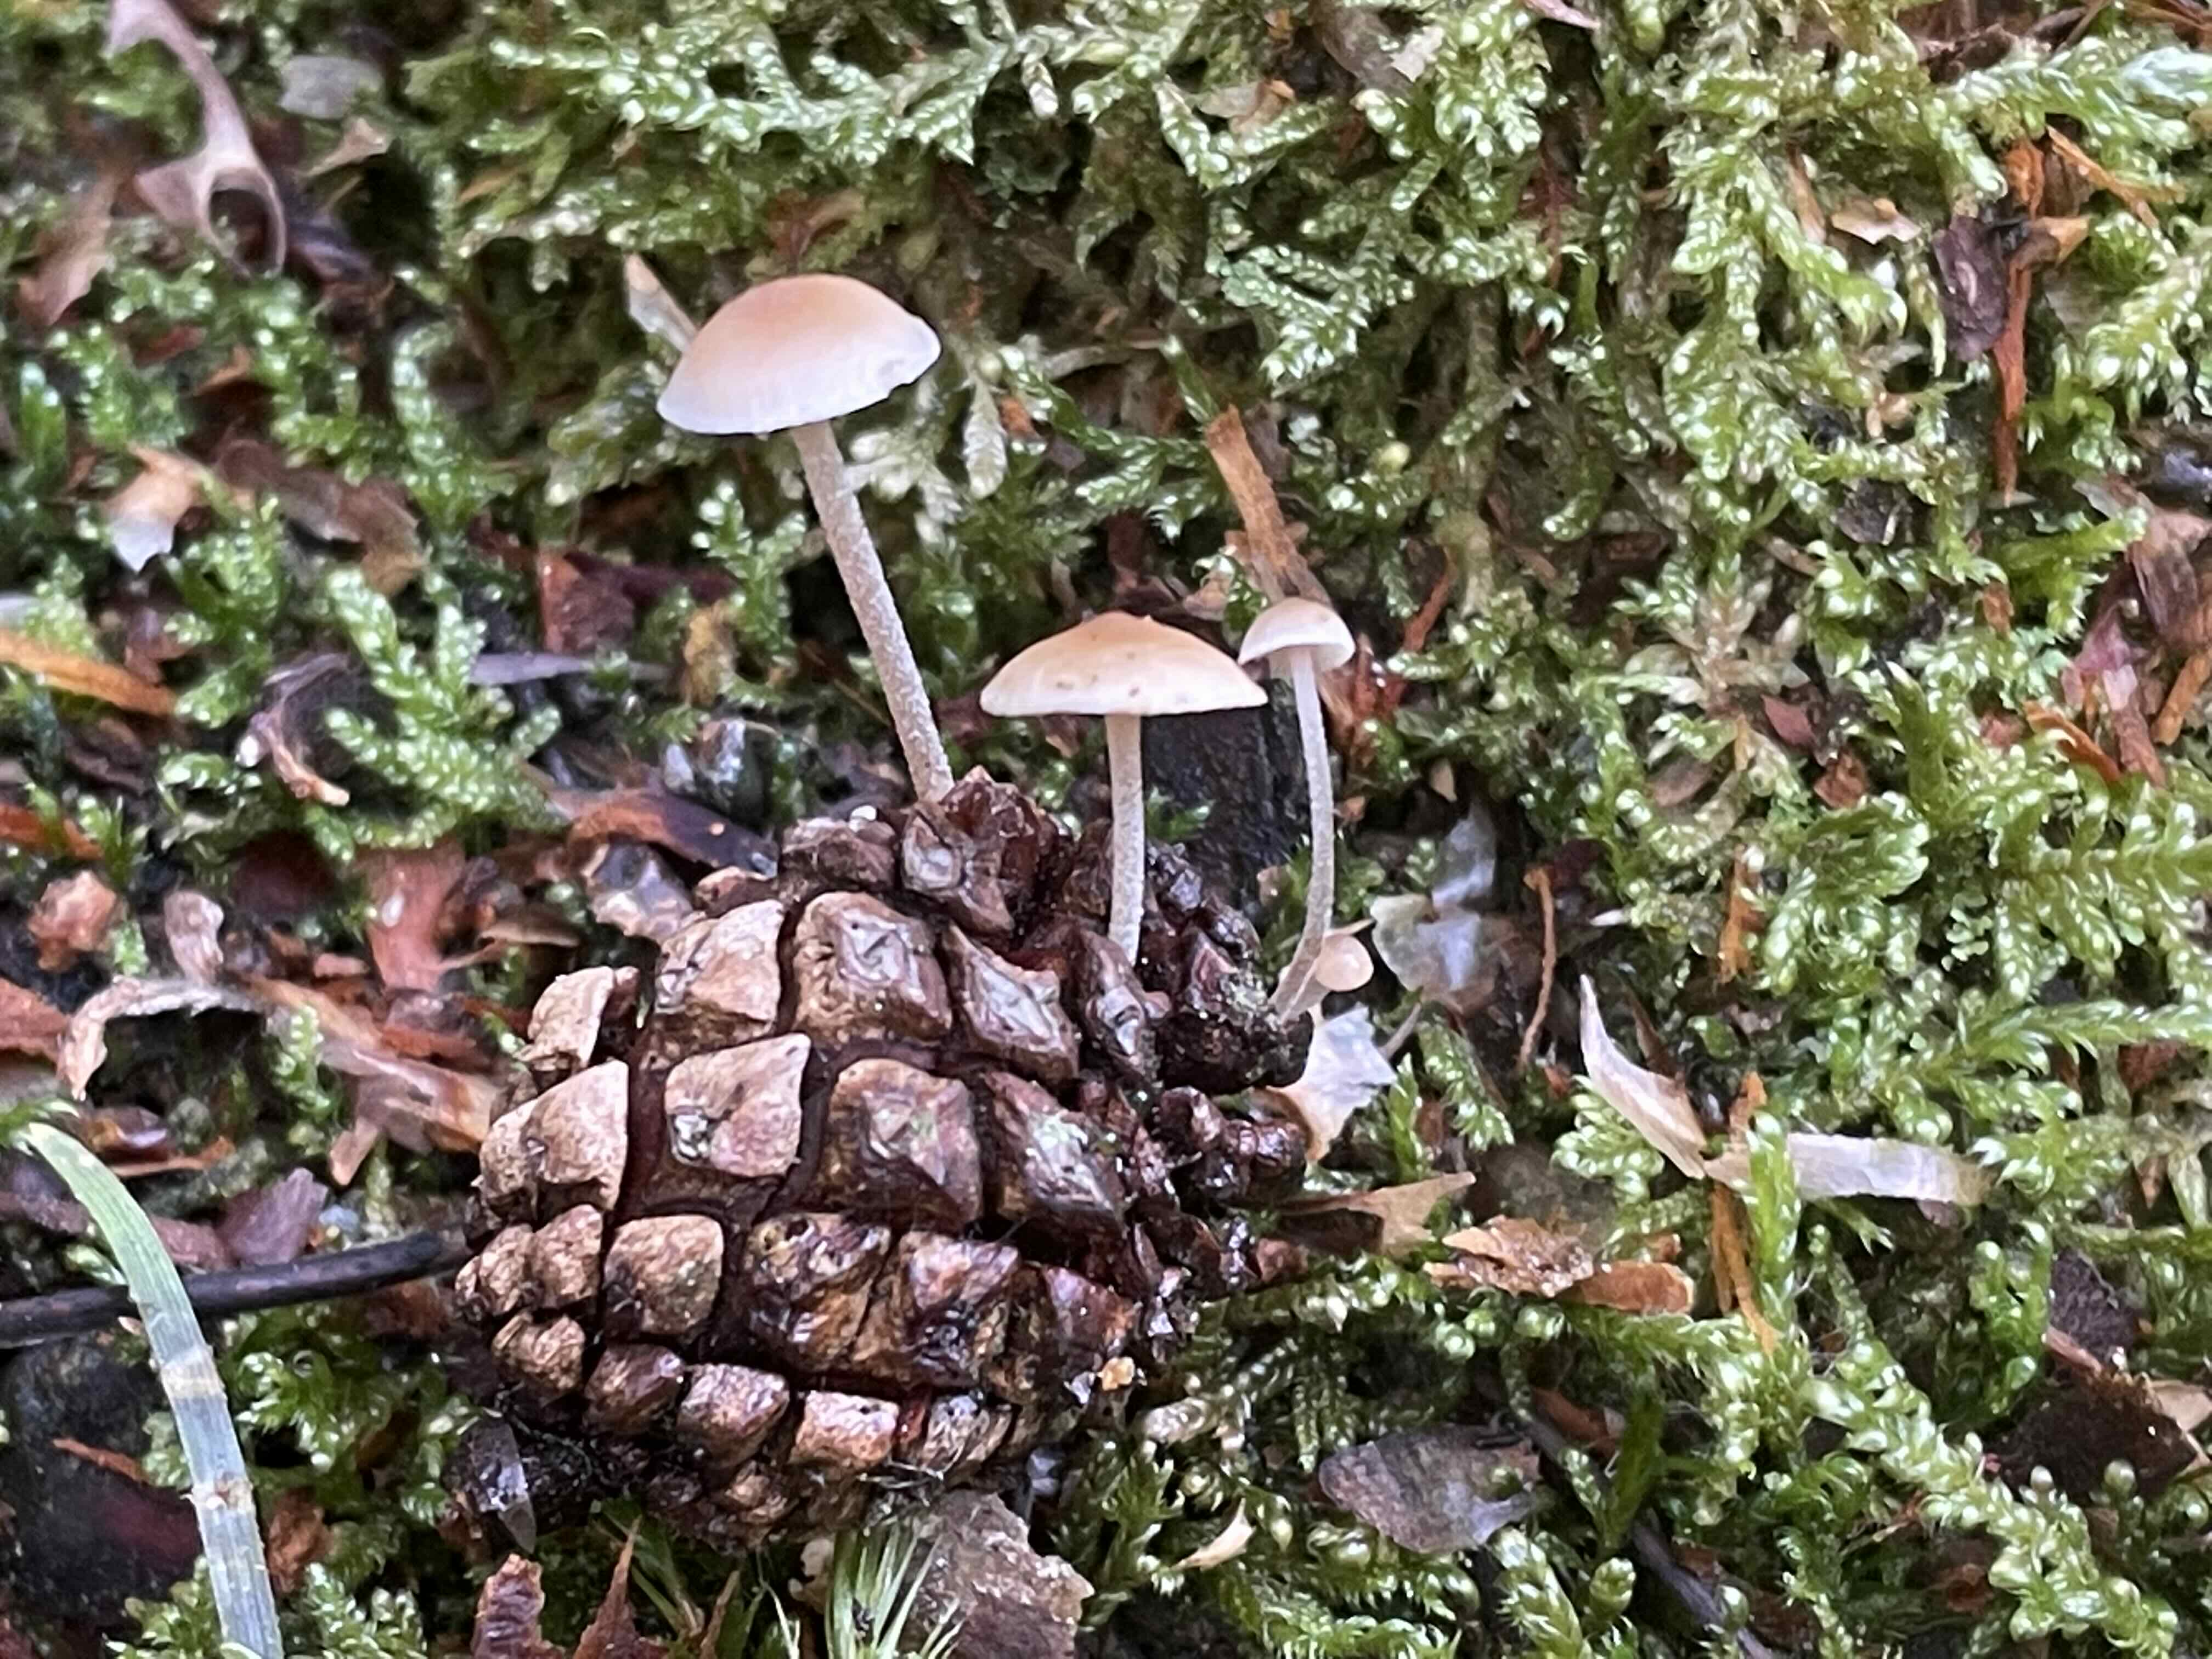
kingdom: Fungi
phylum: Basidiomycota
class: Agaricomycetes
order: Agaricales
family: Marasmiaceae
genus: Baeospora
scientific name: Baeospora myosura
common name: koglebruskhat
